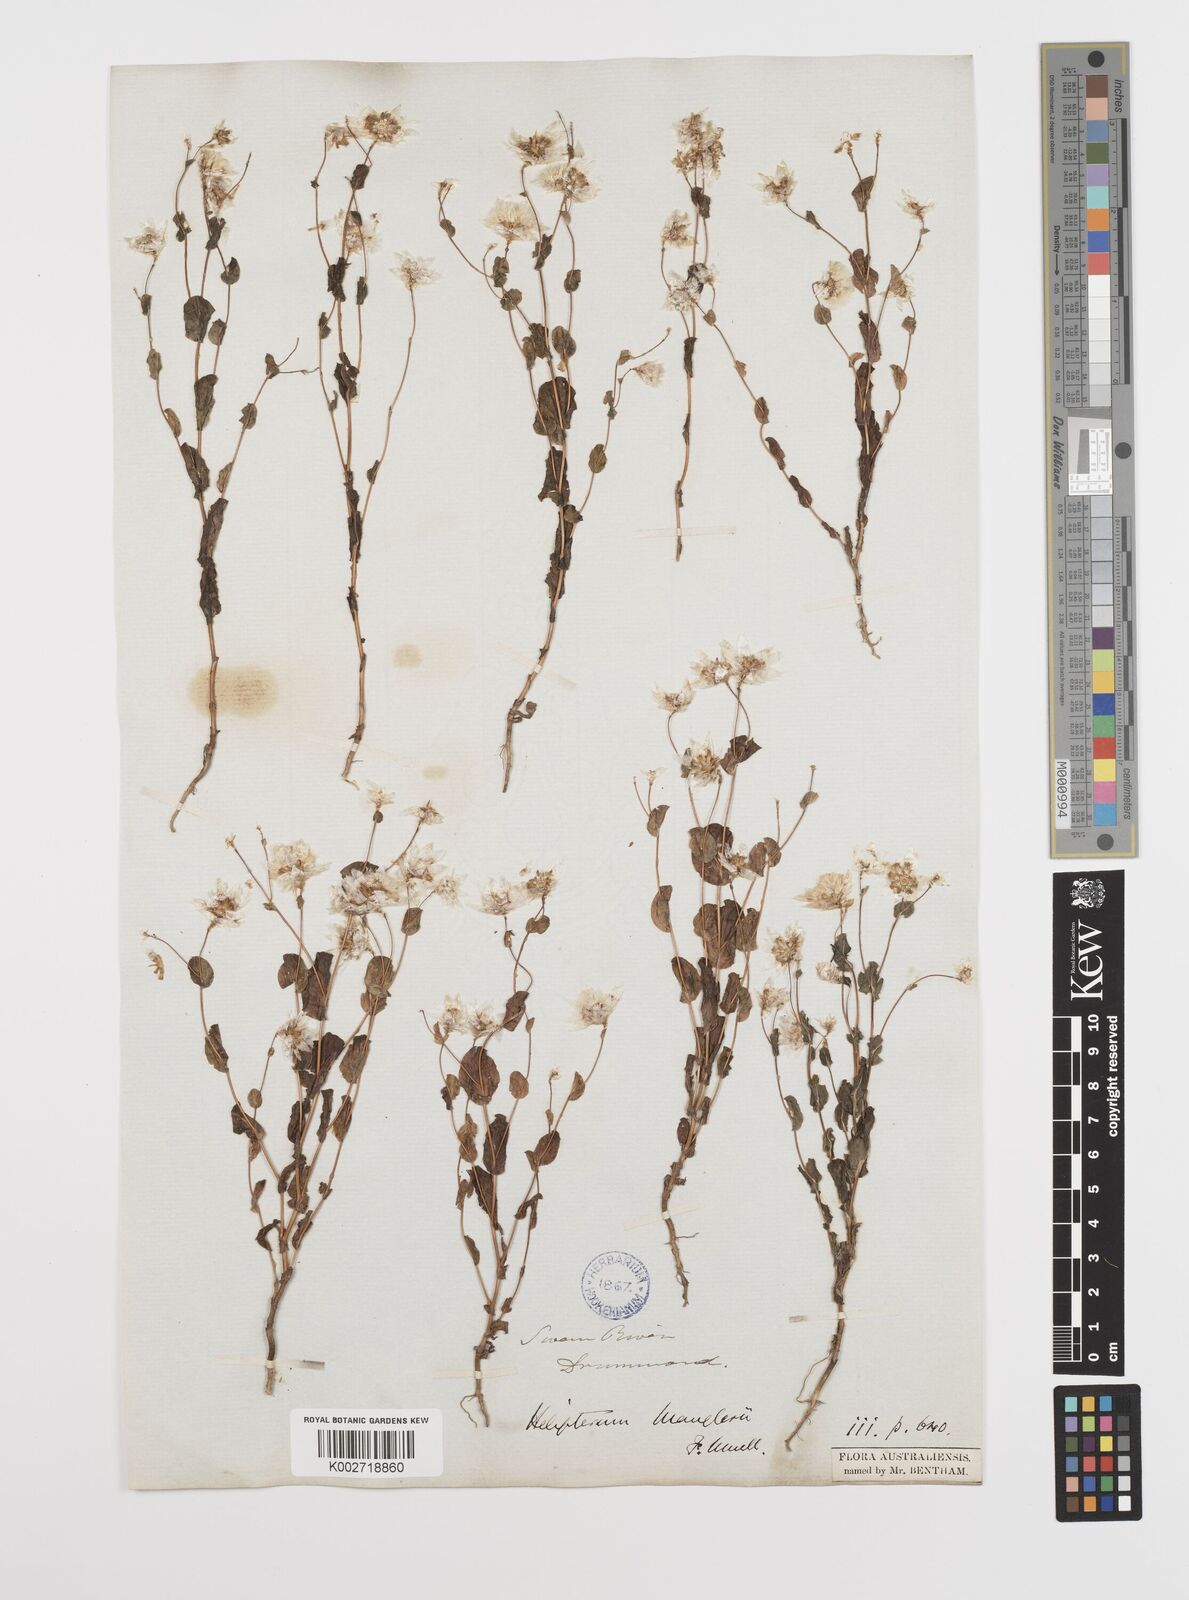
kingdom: Plantae
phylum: Tracheophyta
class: Magnoliopsida
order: Asterales
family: Asteraceae
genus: Rhodanthe
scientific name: Rhodanthe manglesii
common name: Pink sunray
